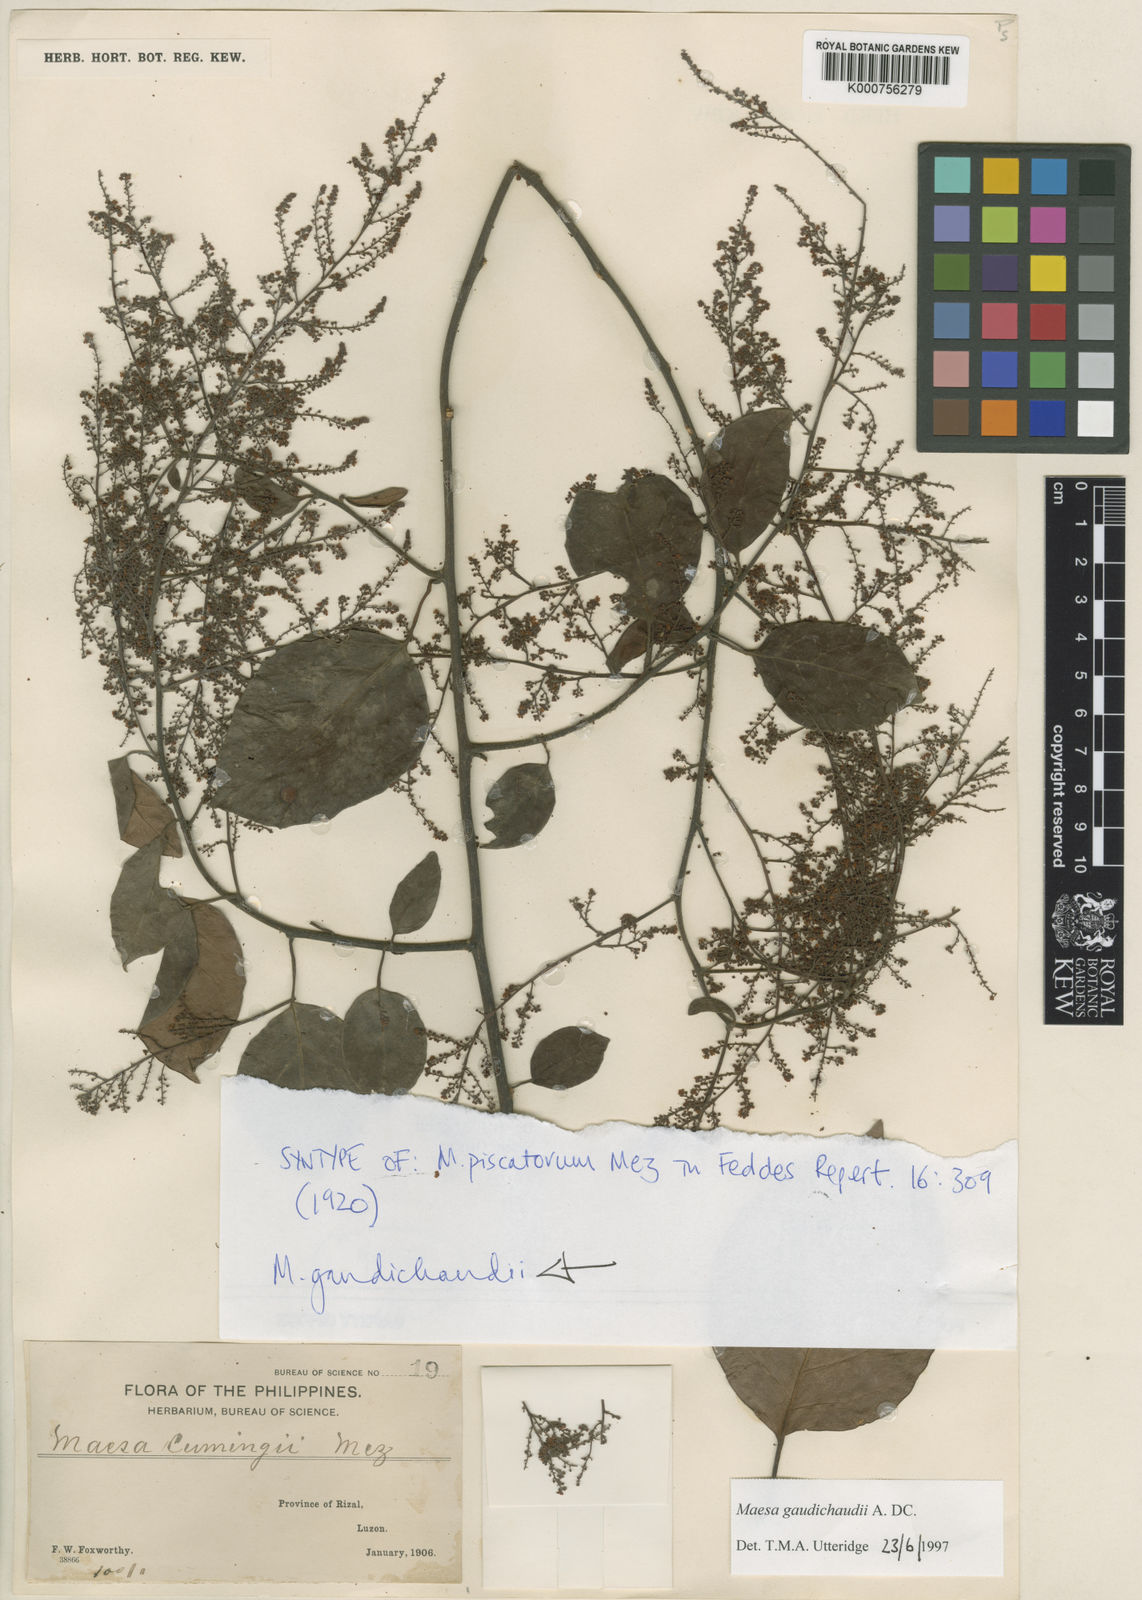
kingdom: Plantae
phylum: Tracheophyta
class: Magnoliopsida
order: Ericales
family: Primulaceae
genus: Maesa
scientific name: Maesa gaudichaudii
